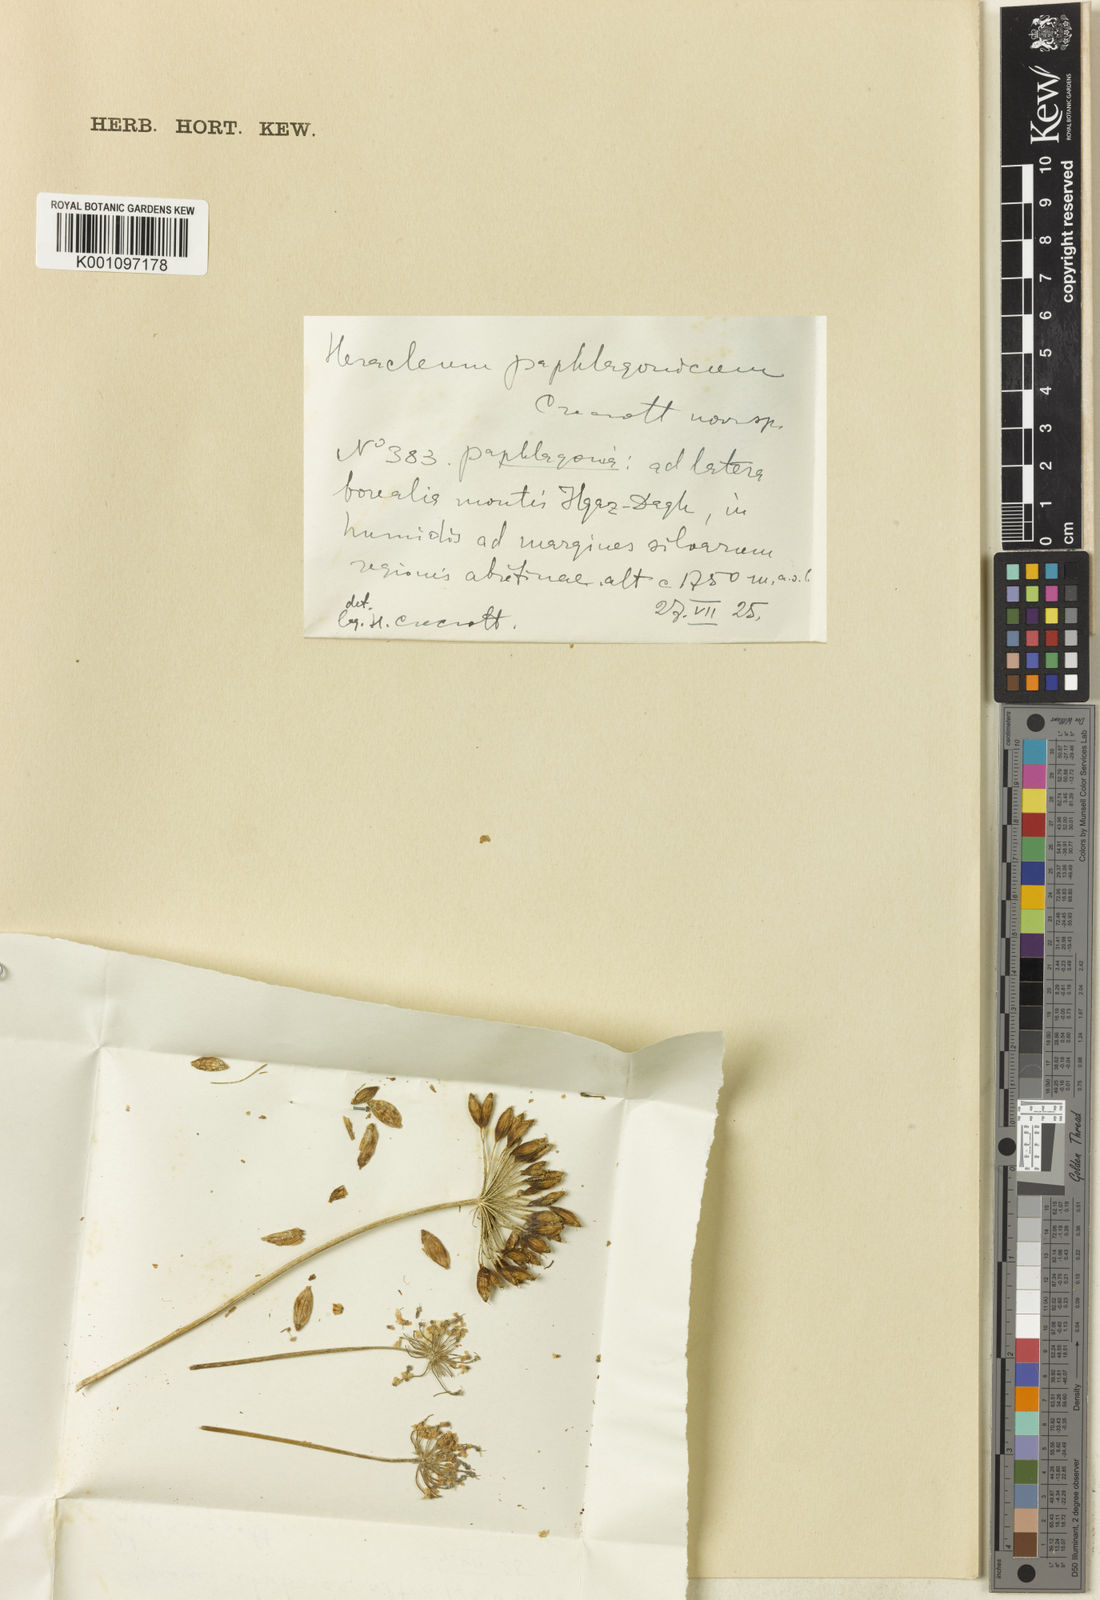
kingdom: Plantae
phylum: Tracheophyta
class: Magnoliopsida
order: Apiales
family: Apiaceae
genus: Heracleum
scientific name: Heracleum paphlagonicum
